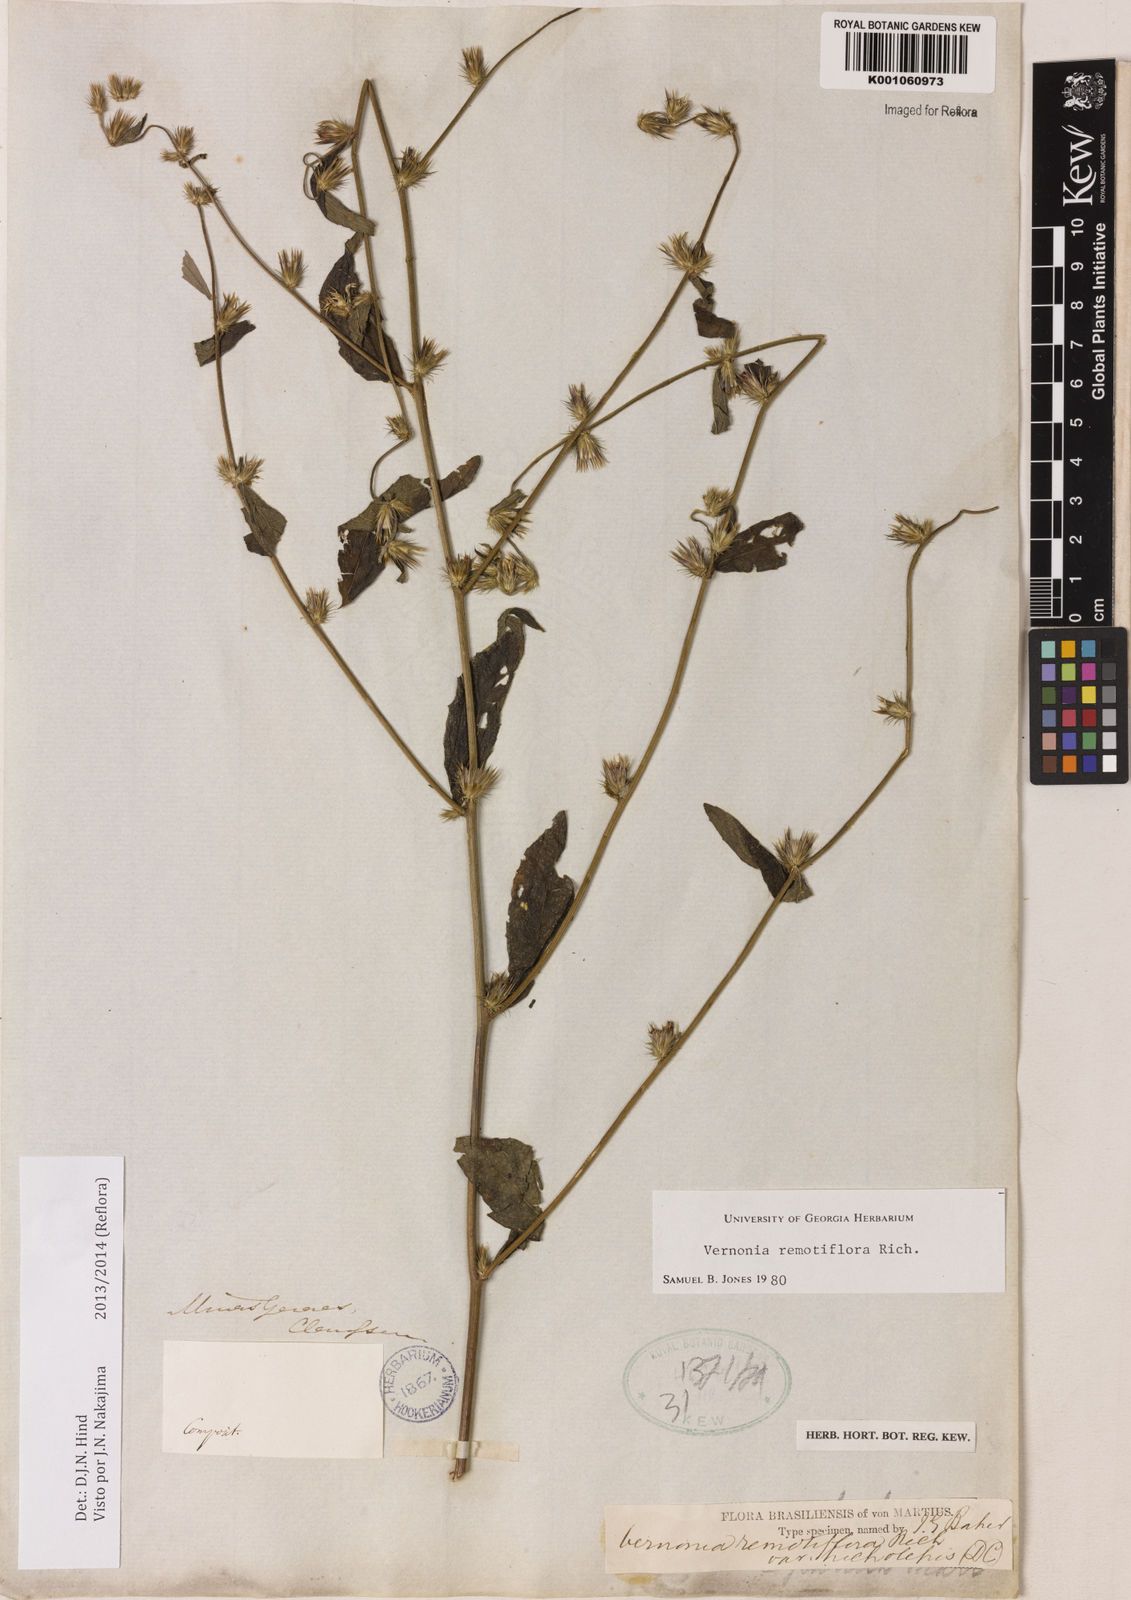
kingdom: Plantae
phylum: Tracheophyta
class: Magnoliopsida
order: Asterales
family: Asteraceae
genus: Lepidaploa
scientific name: Lepidaploa remotiflora
